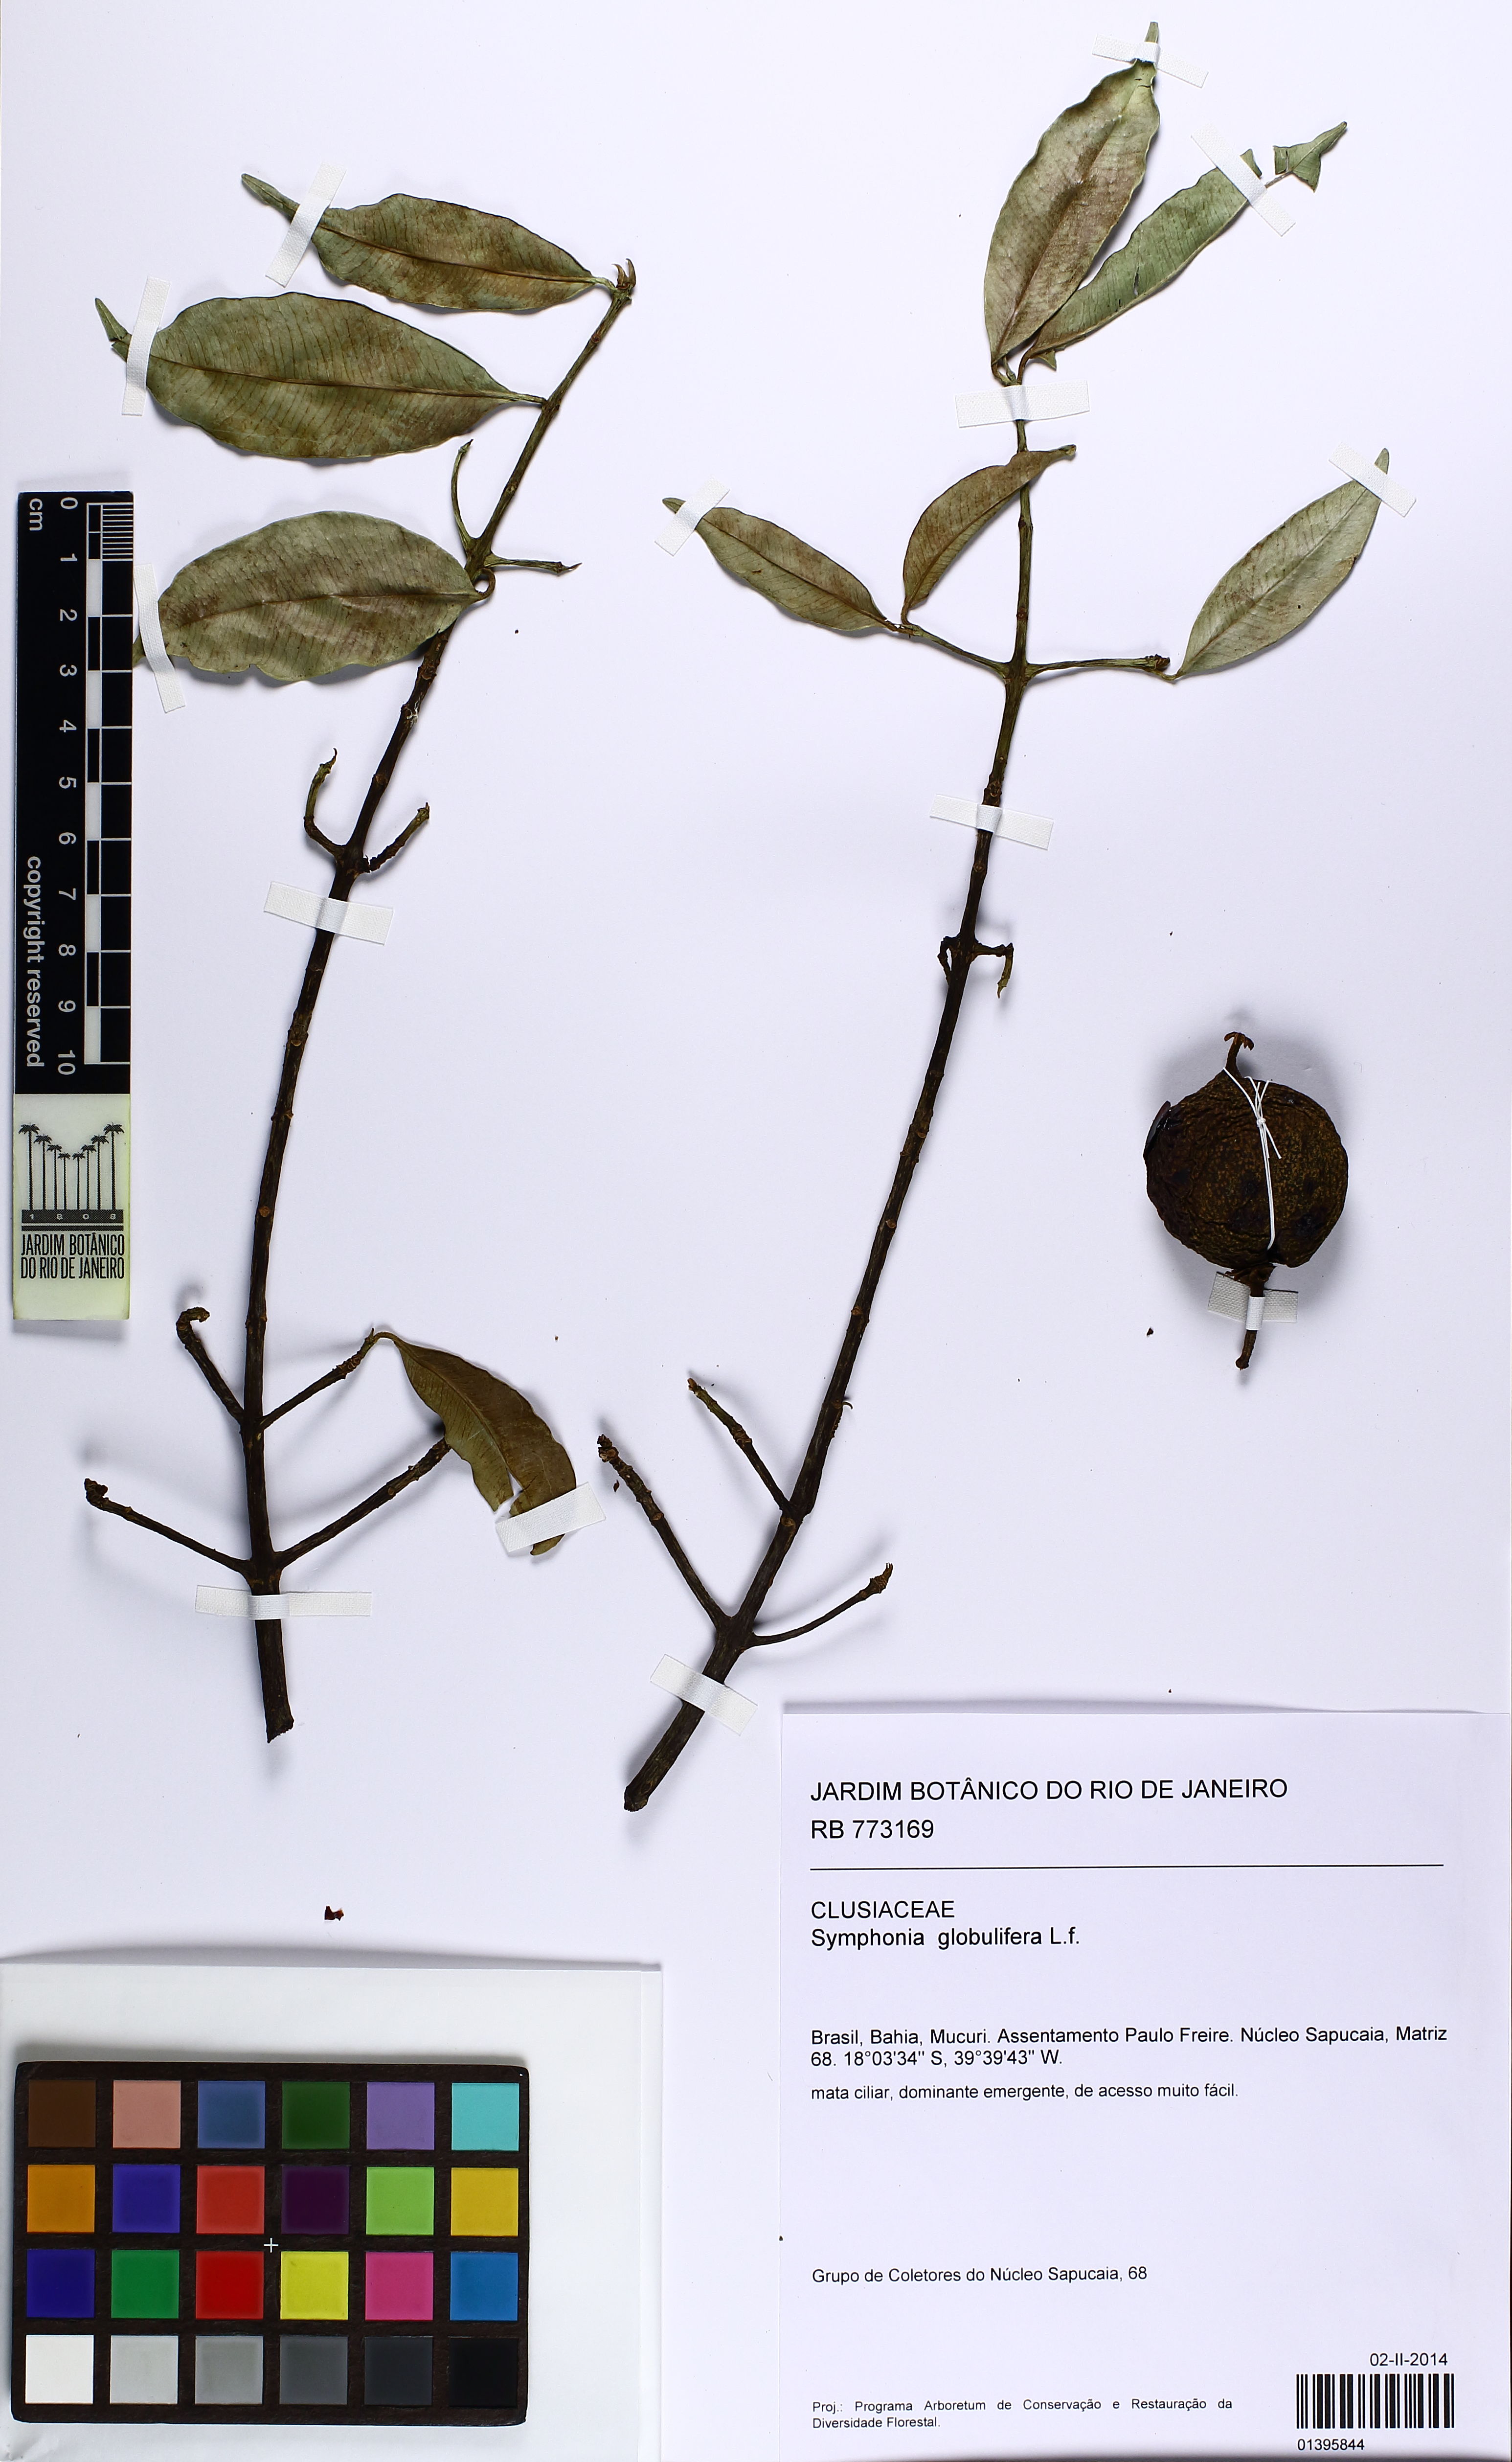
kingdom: Plantae
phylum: Tracheophyta
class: Magnoliopsida
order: Malpighiales
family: Clusiaceae
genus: Symphonia
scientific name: Symphonia globulifera
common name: Boarwood
